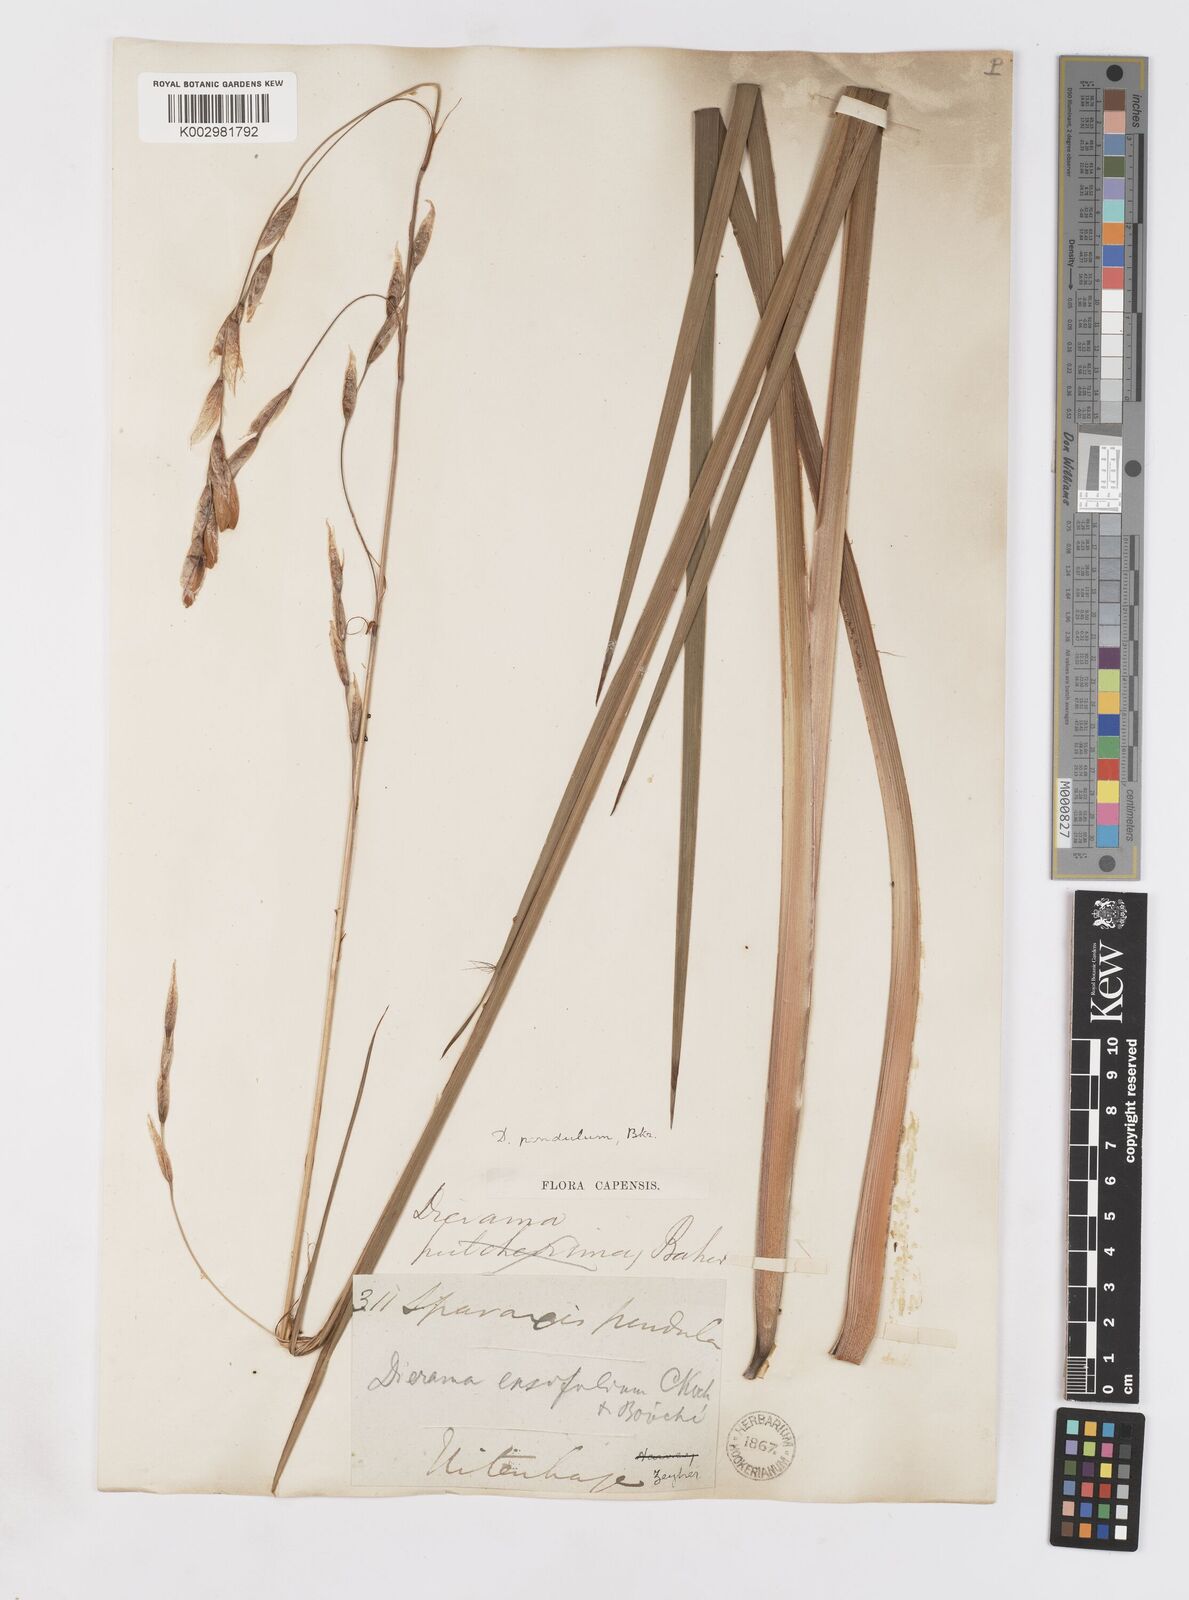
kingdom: Plantae
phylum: Tracheophyta
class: Liliopsida
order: Asparagales
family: Iridaceae
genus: Dierama
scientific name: Dierama pendulum
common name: Grassy-bell
